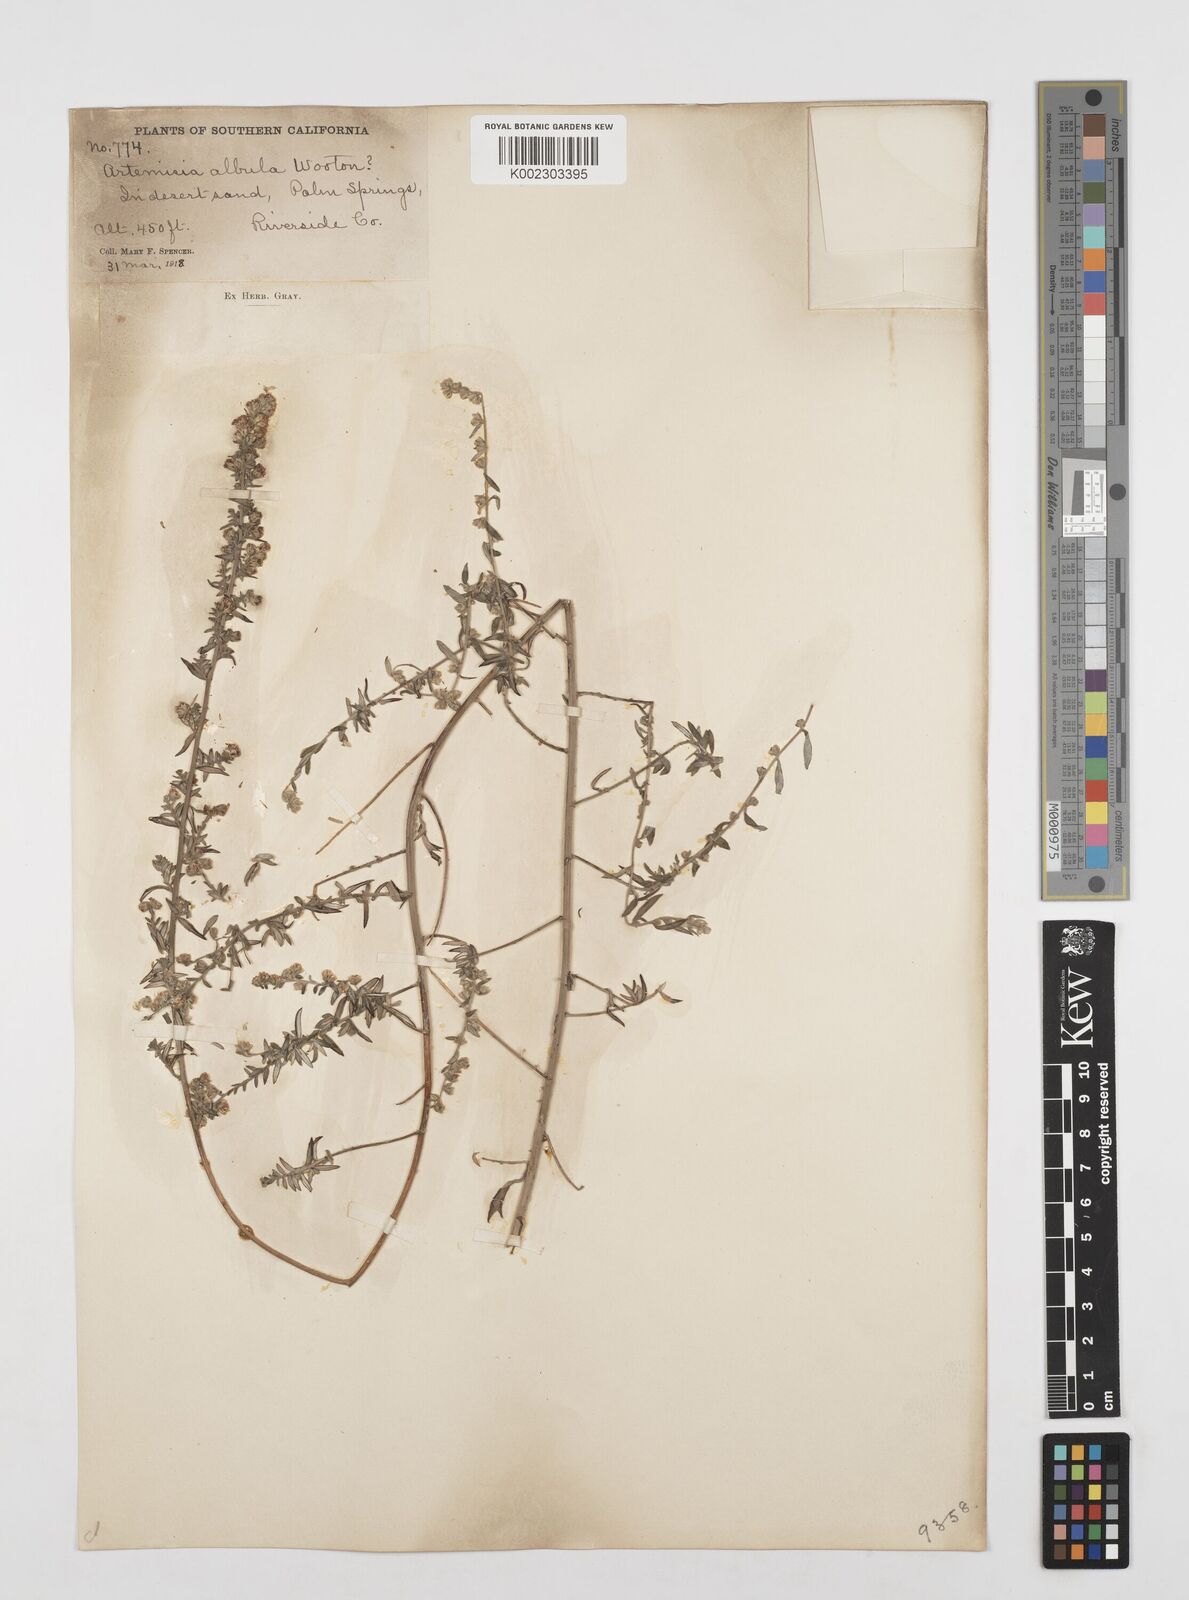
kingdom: Plantae
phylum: Tracheophyta
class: Magnoliopsida
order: Asterales
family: Asteraceae
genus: Artemisia
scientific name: Artemisia
